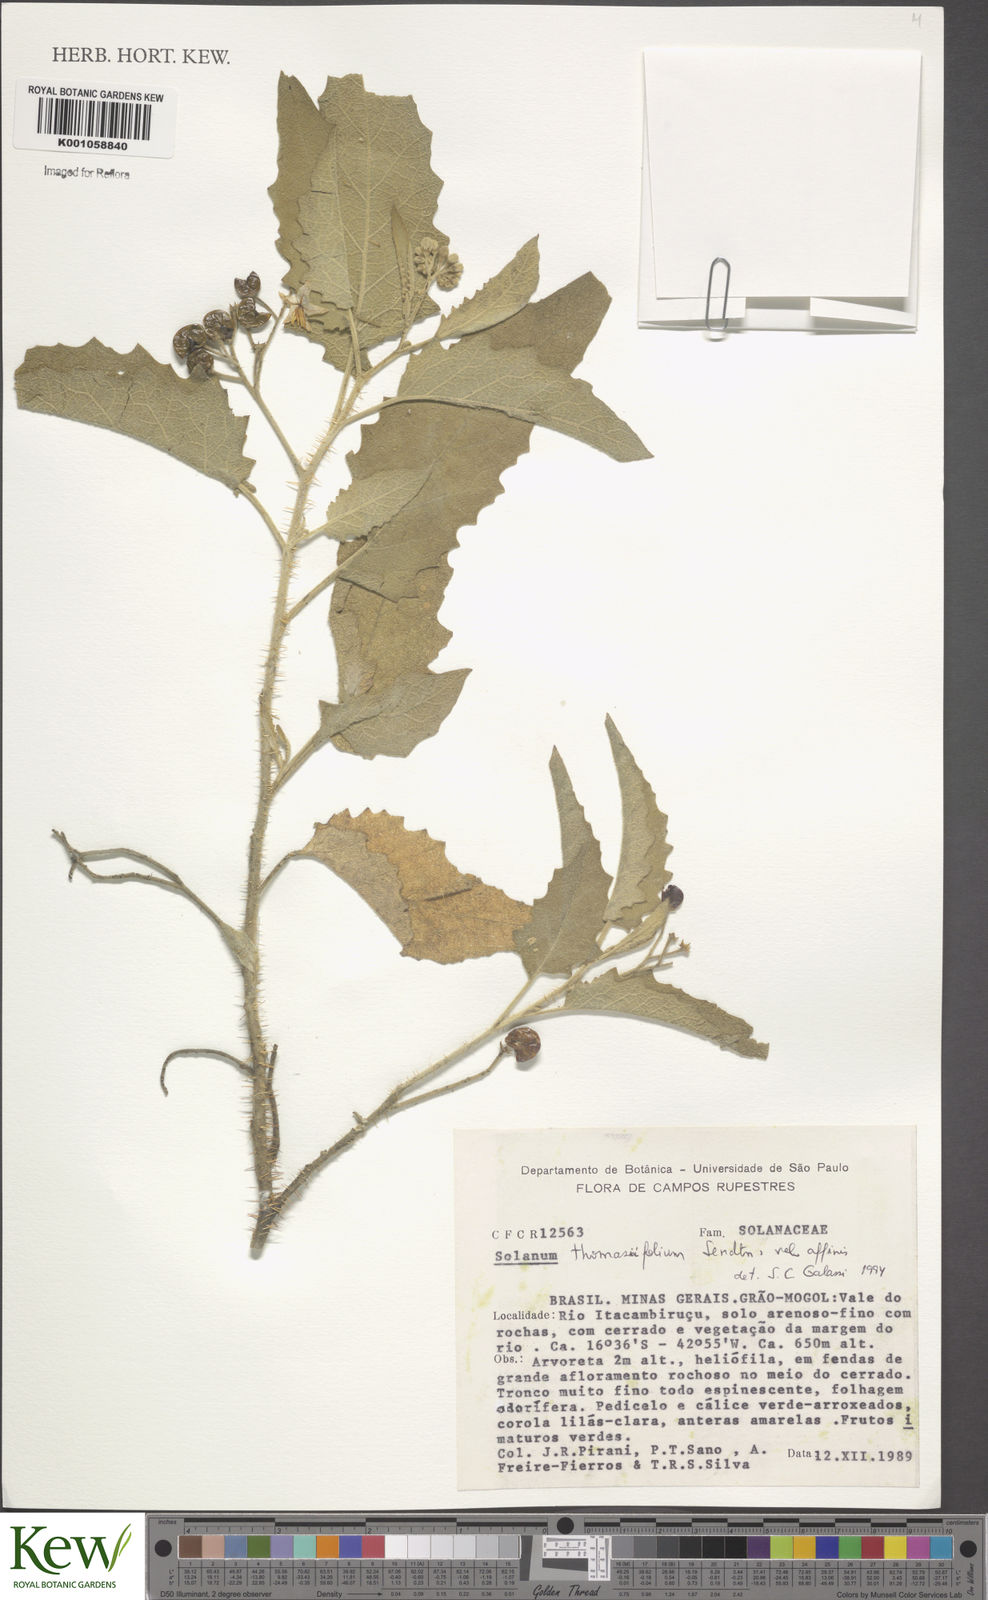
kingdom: Plantae
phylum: Tracheophyta
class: Magnoliopsida
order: Solanales
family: Solanaceae
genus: Solanum
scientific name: Solanum thomasiifolium
